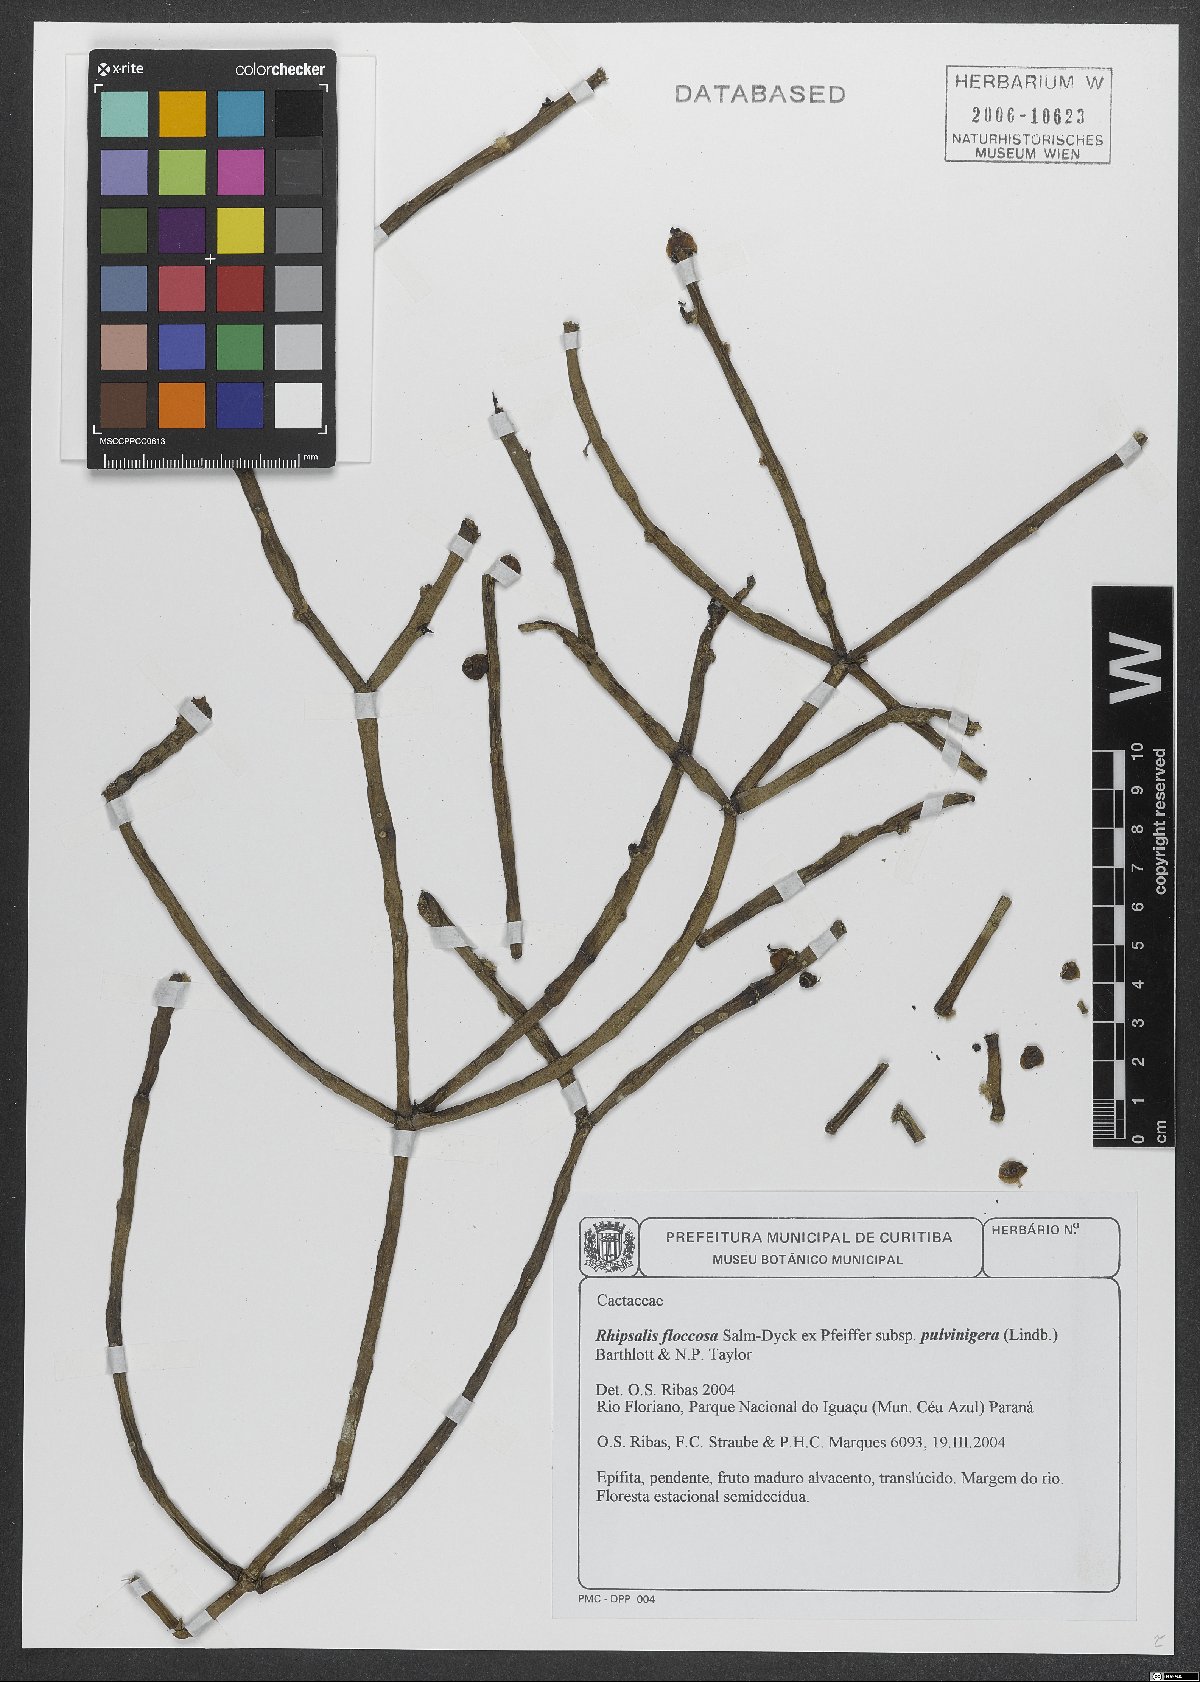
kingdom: Plantae
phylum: Tracheophyta
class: Magnoliopsida
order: Caryophyllales
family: Cactaceae
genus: Rhipsalis
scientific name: Rhipsalis floccosa
